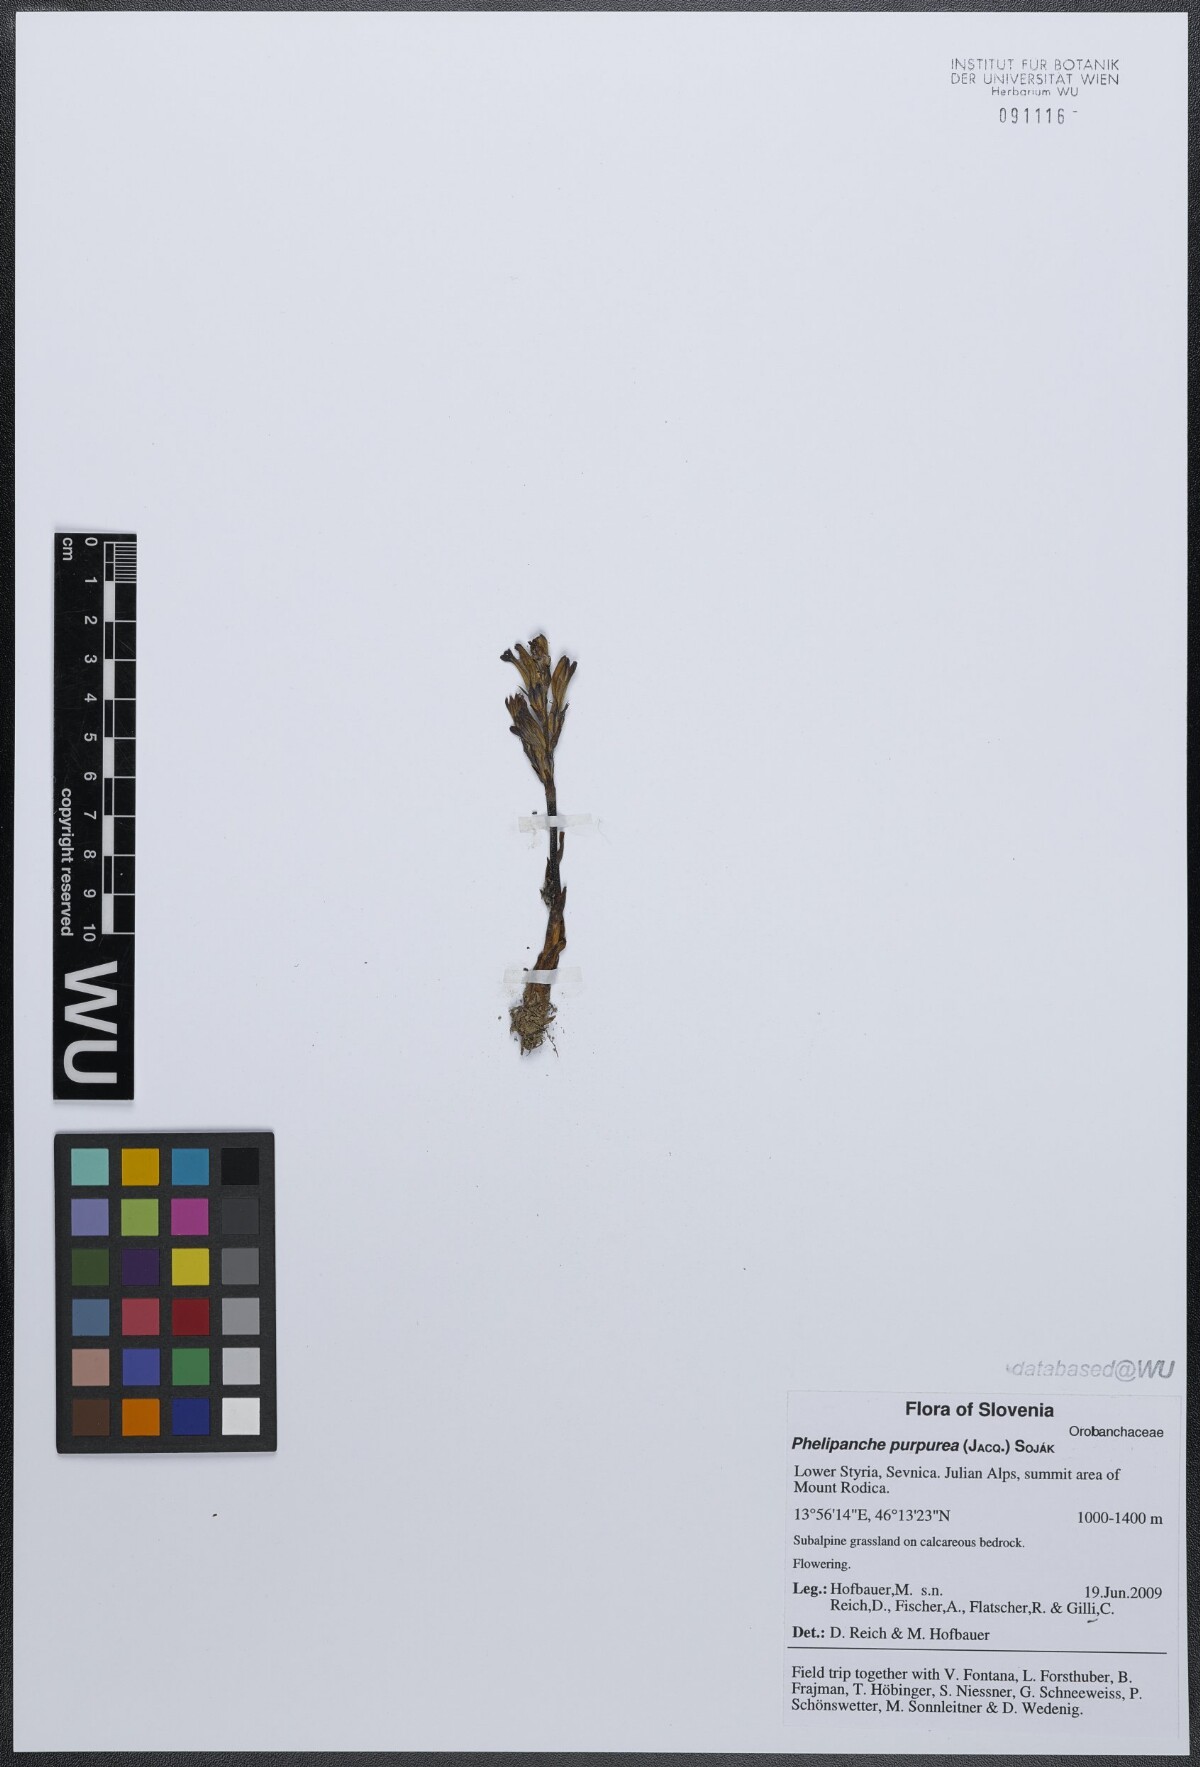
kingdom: Plantae
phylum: Tracheophyta
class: Magnoliopsida
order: Lamiales
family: Orobanchaceae
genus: Phelipanche
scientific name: Phelipanche purpurea
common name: Purple broomrape
